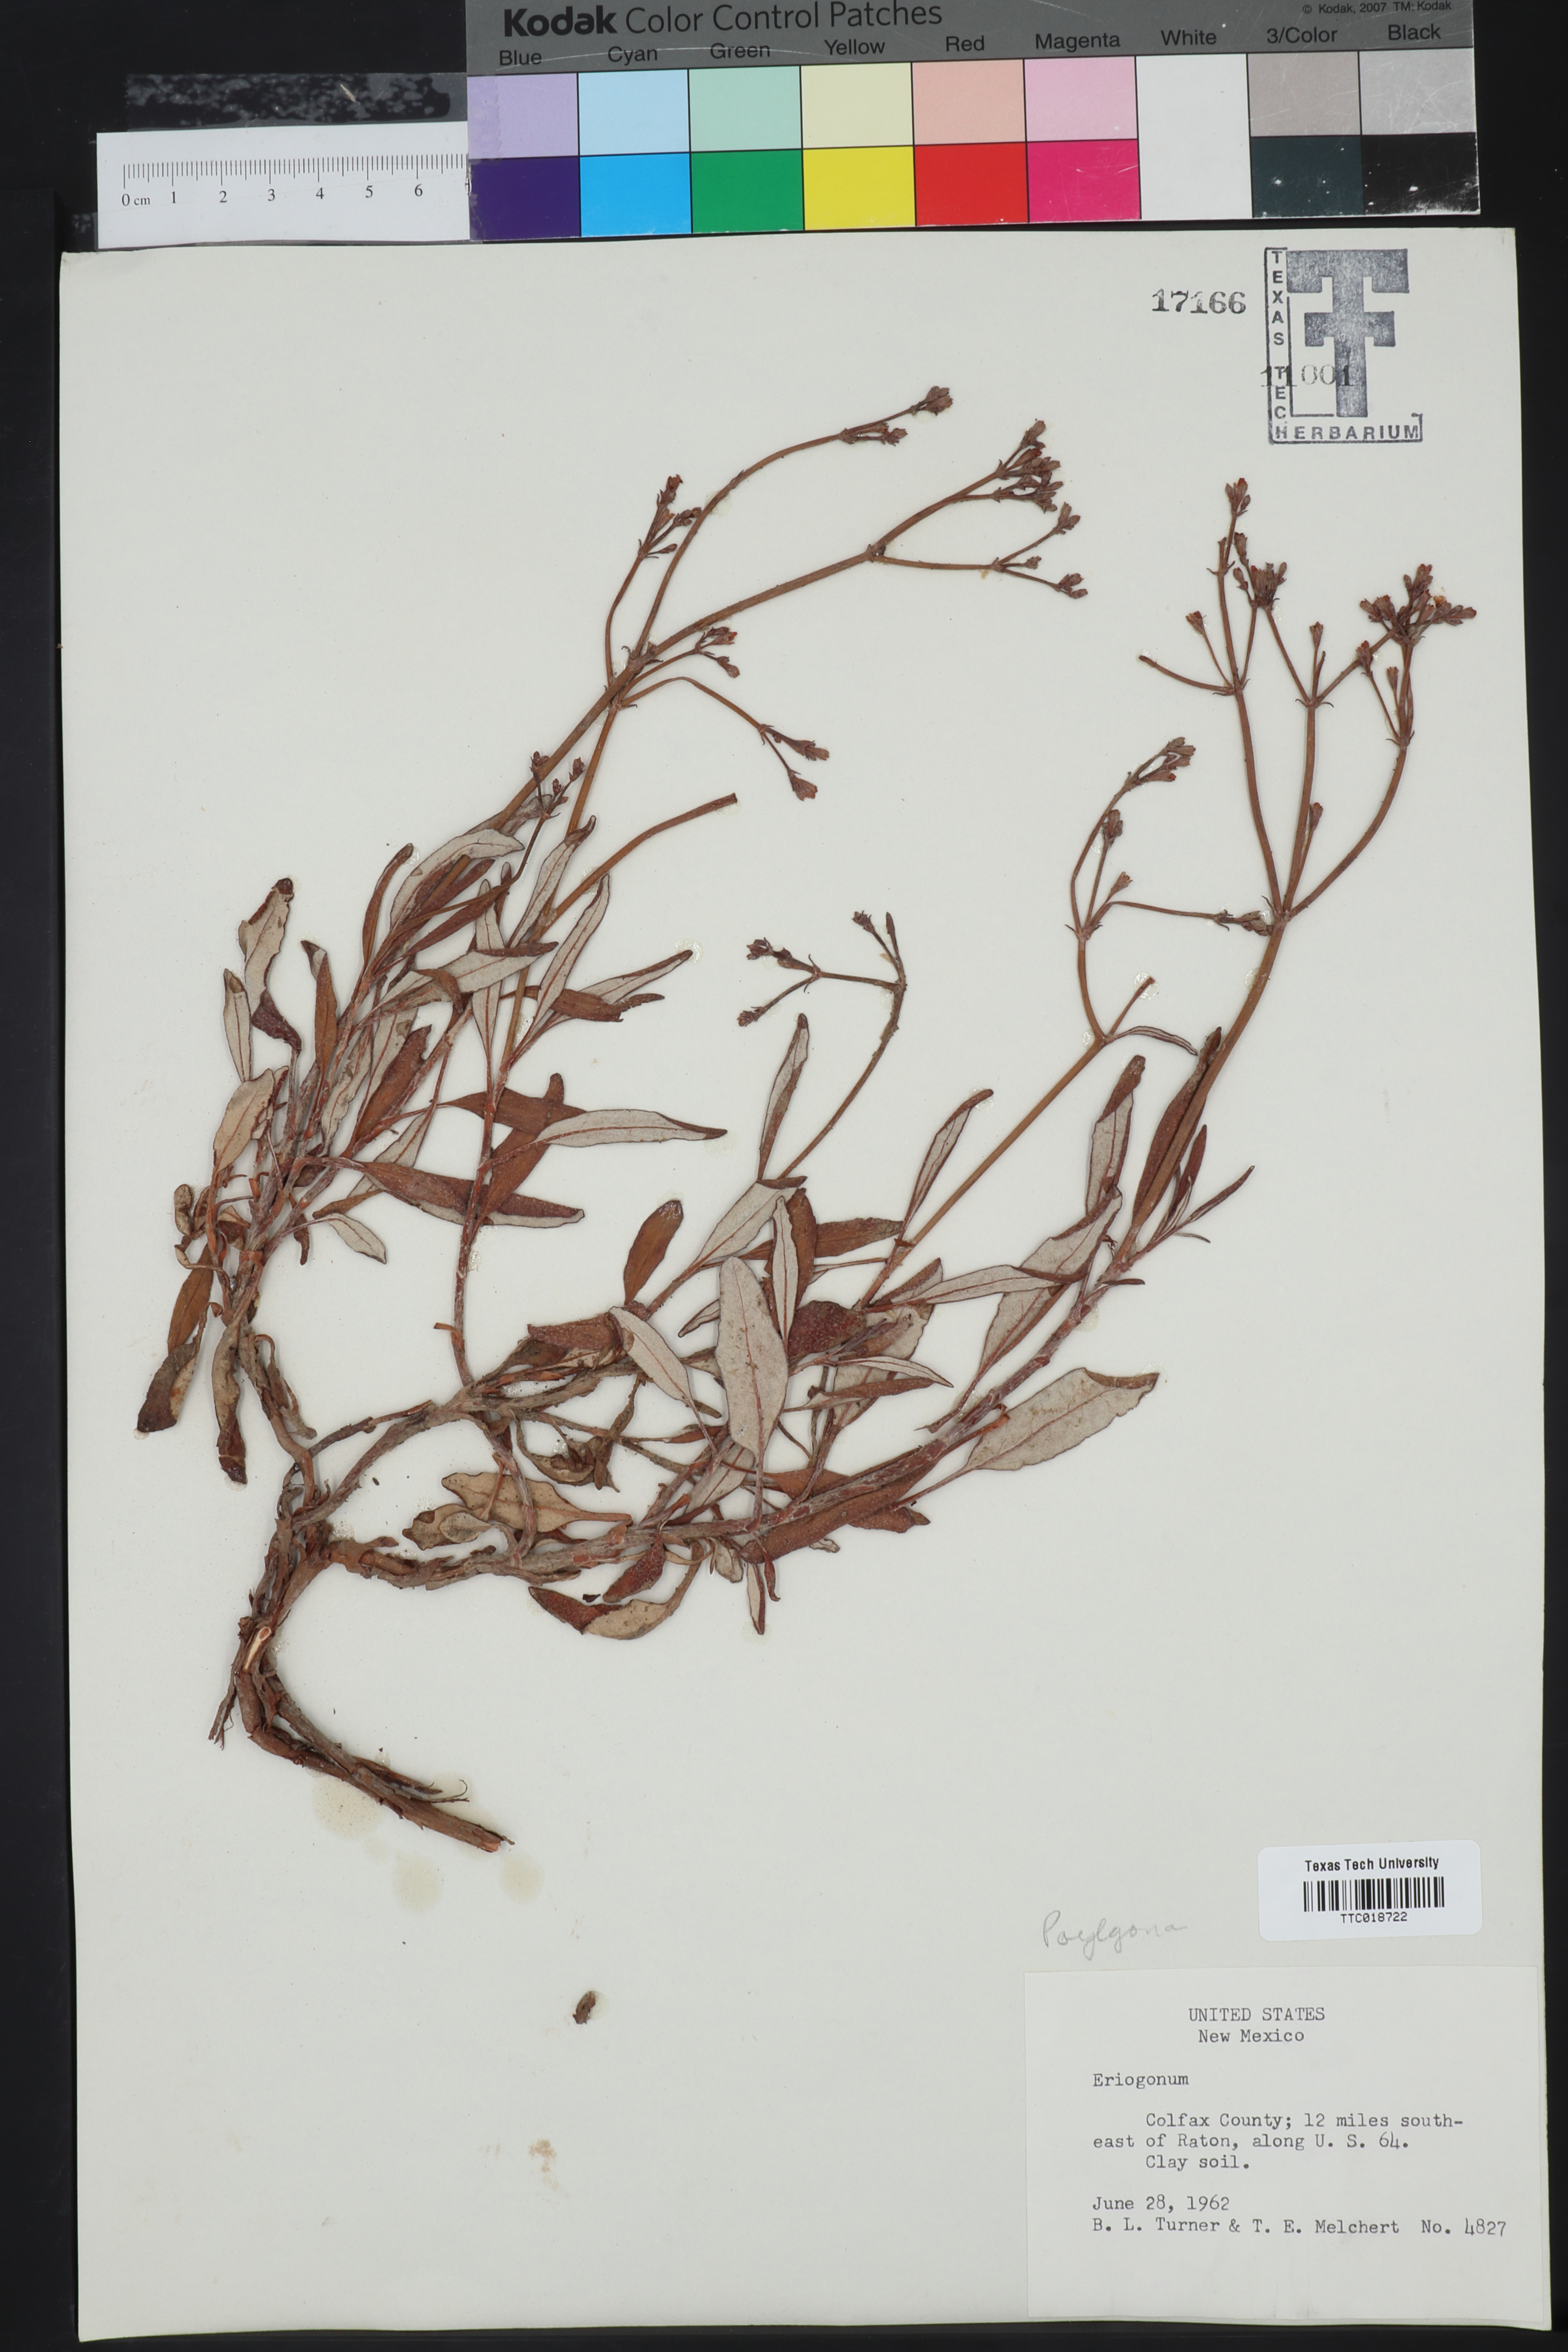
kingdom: Plantae
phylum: Tracheophyta
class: Magnoliopsida
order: Caryophyllales
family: Polygonaceae
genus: Eriogonum
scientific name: Eriogonum
